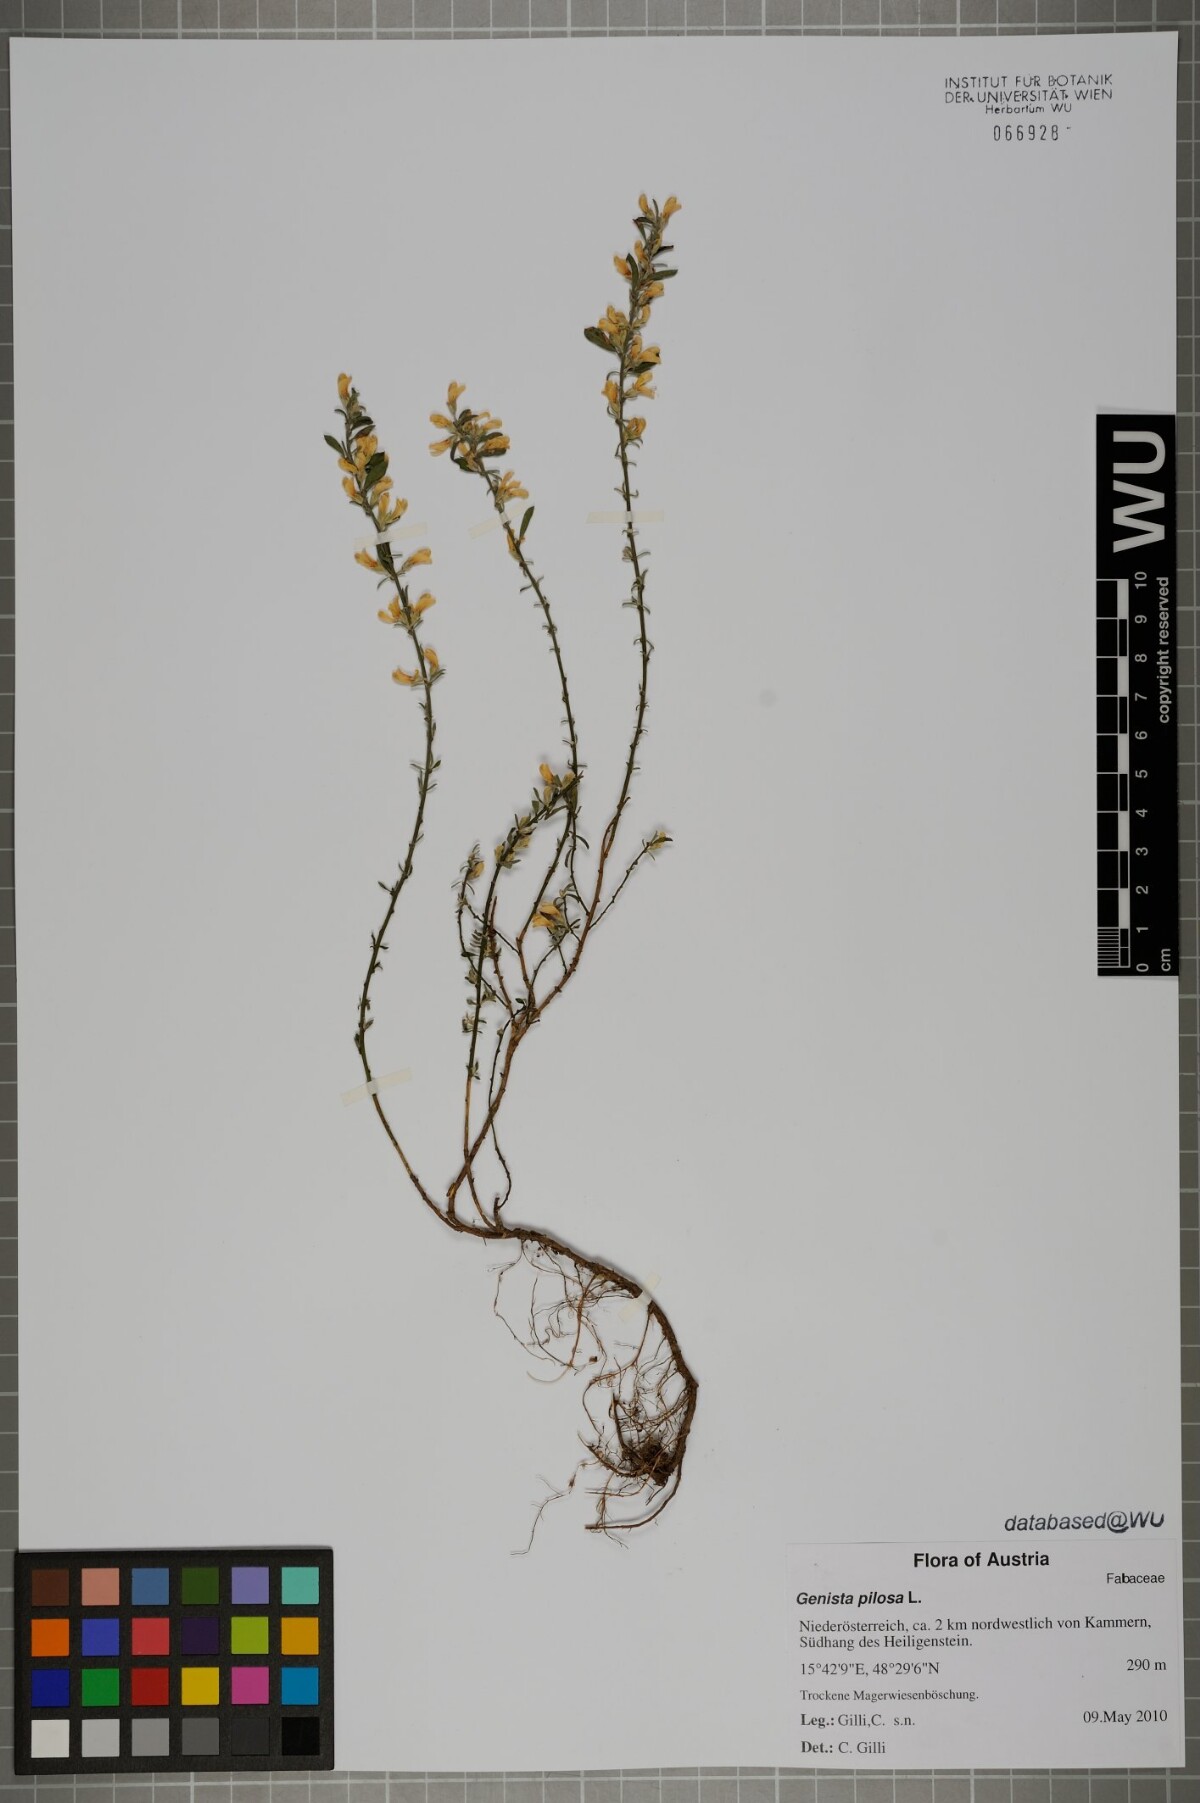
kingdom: Plantae
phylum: Tracheophyta
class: Magnoliopsida
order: Fabales
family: Fabaceae
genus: Genista
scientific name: Genista pilosa
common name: Hairy greenweed
